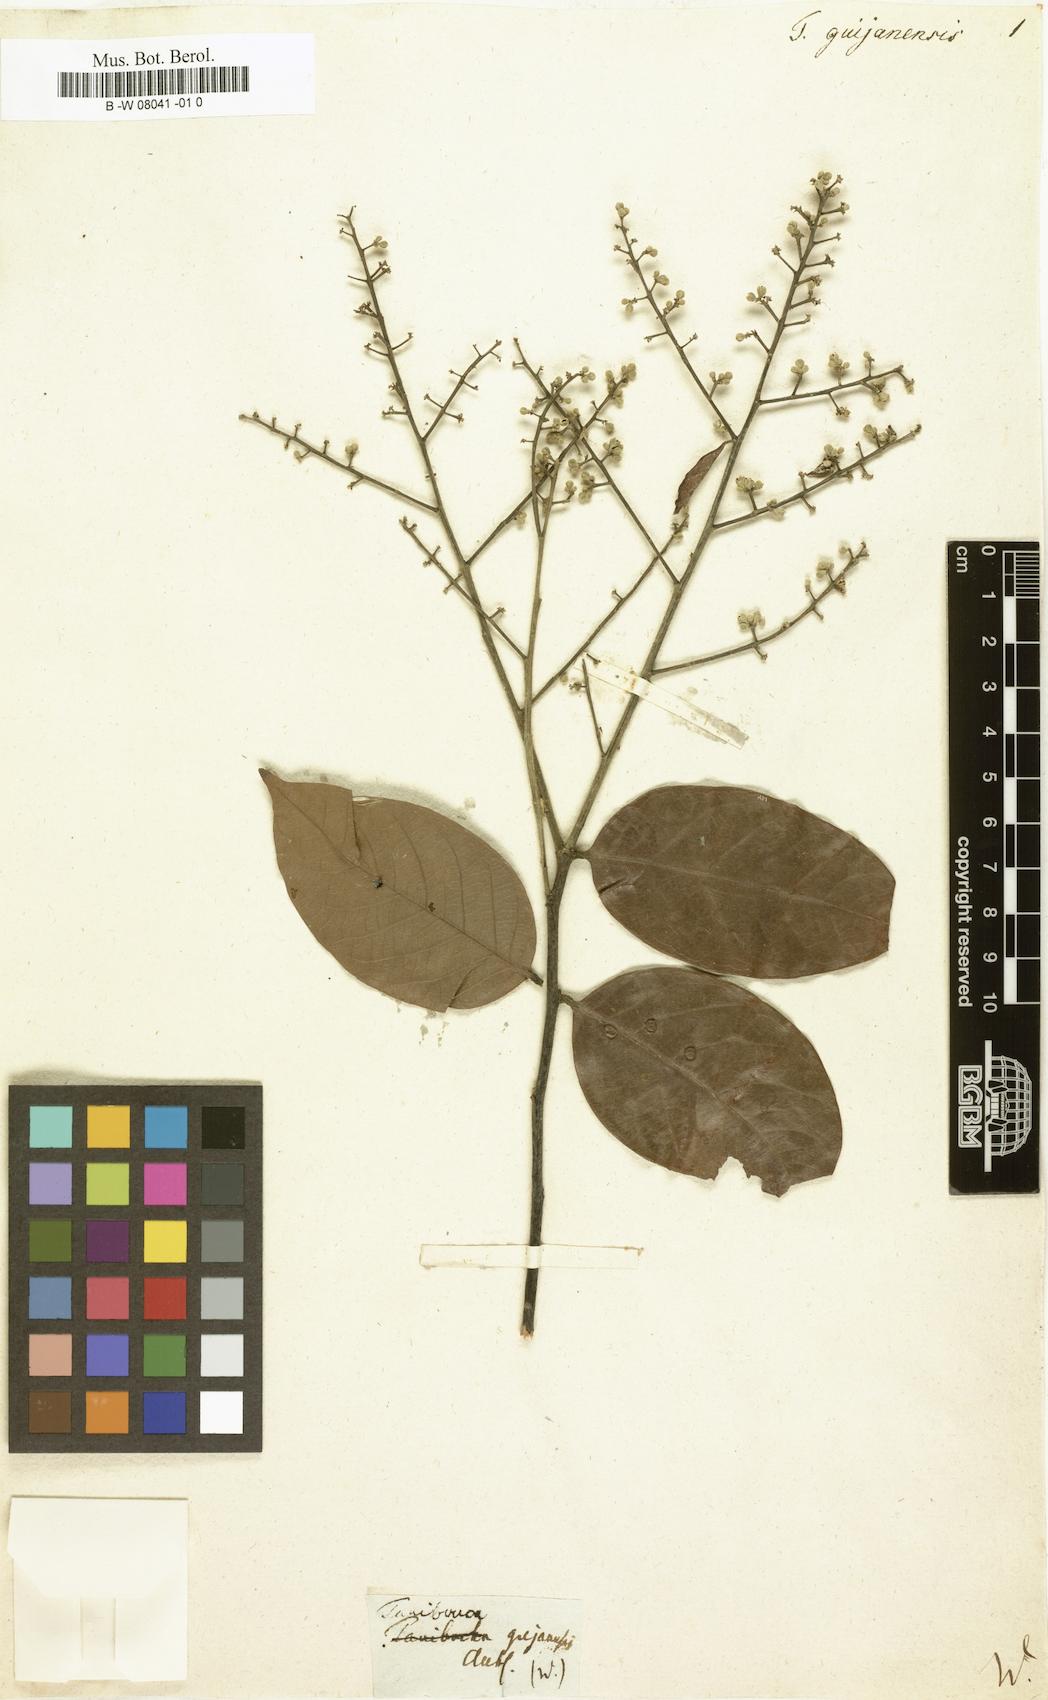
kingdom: Plantae
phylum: Tracheophyta
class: Magnoliopsida
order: Myrtales
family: Combretaceae
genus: Terminalia
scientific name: Terminalia dichotoma
